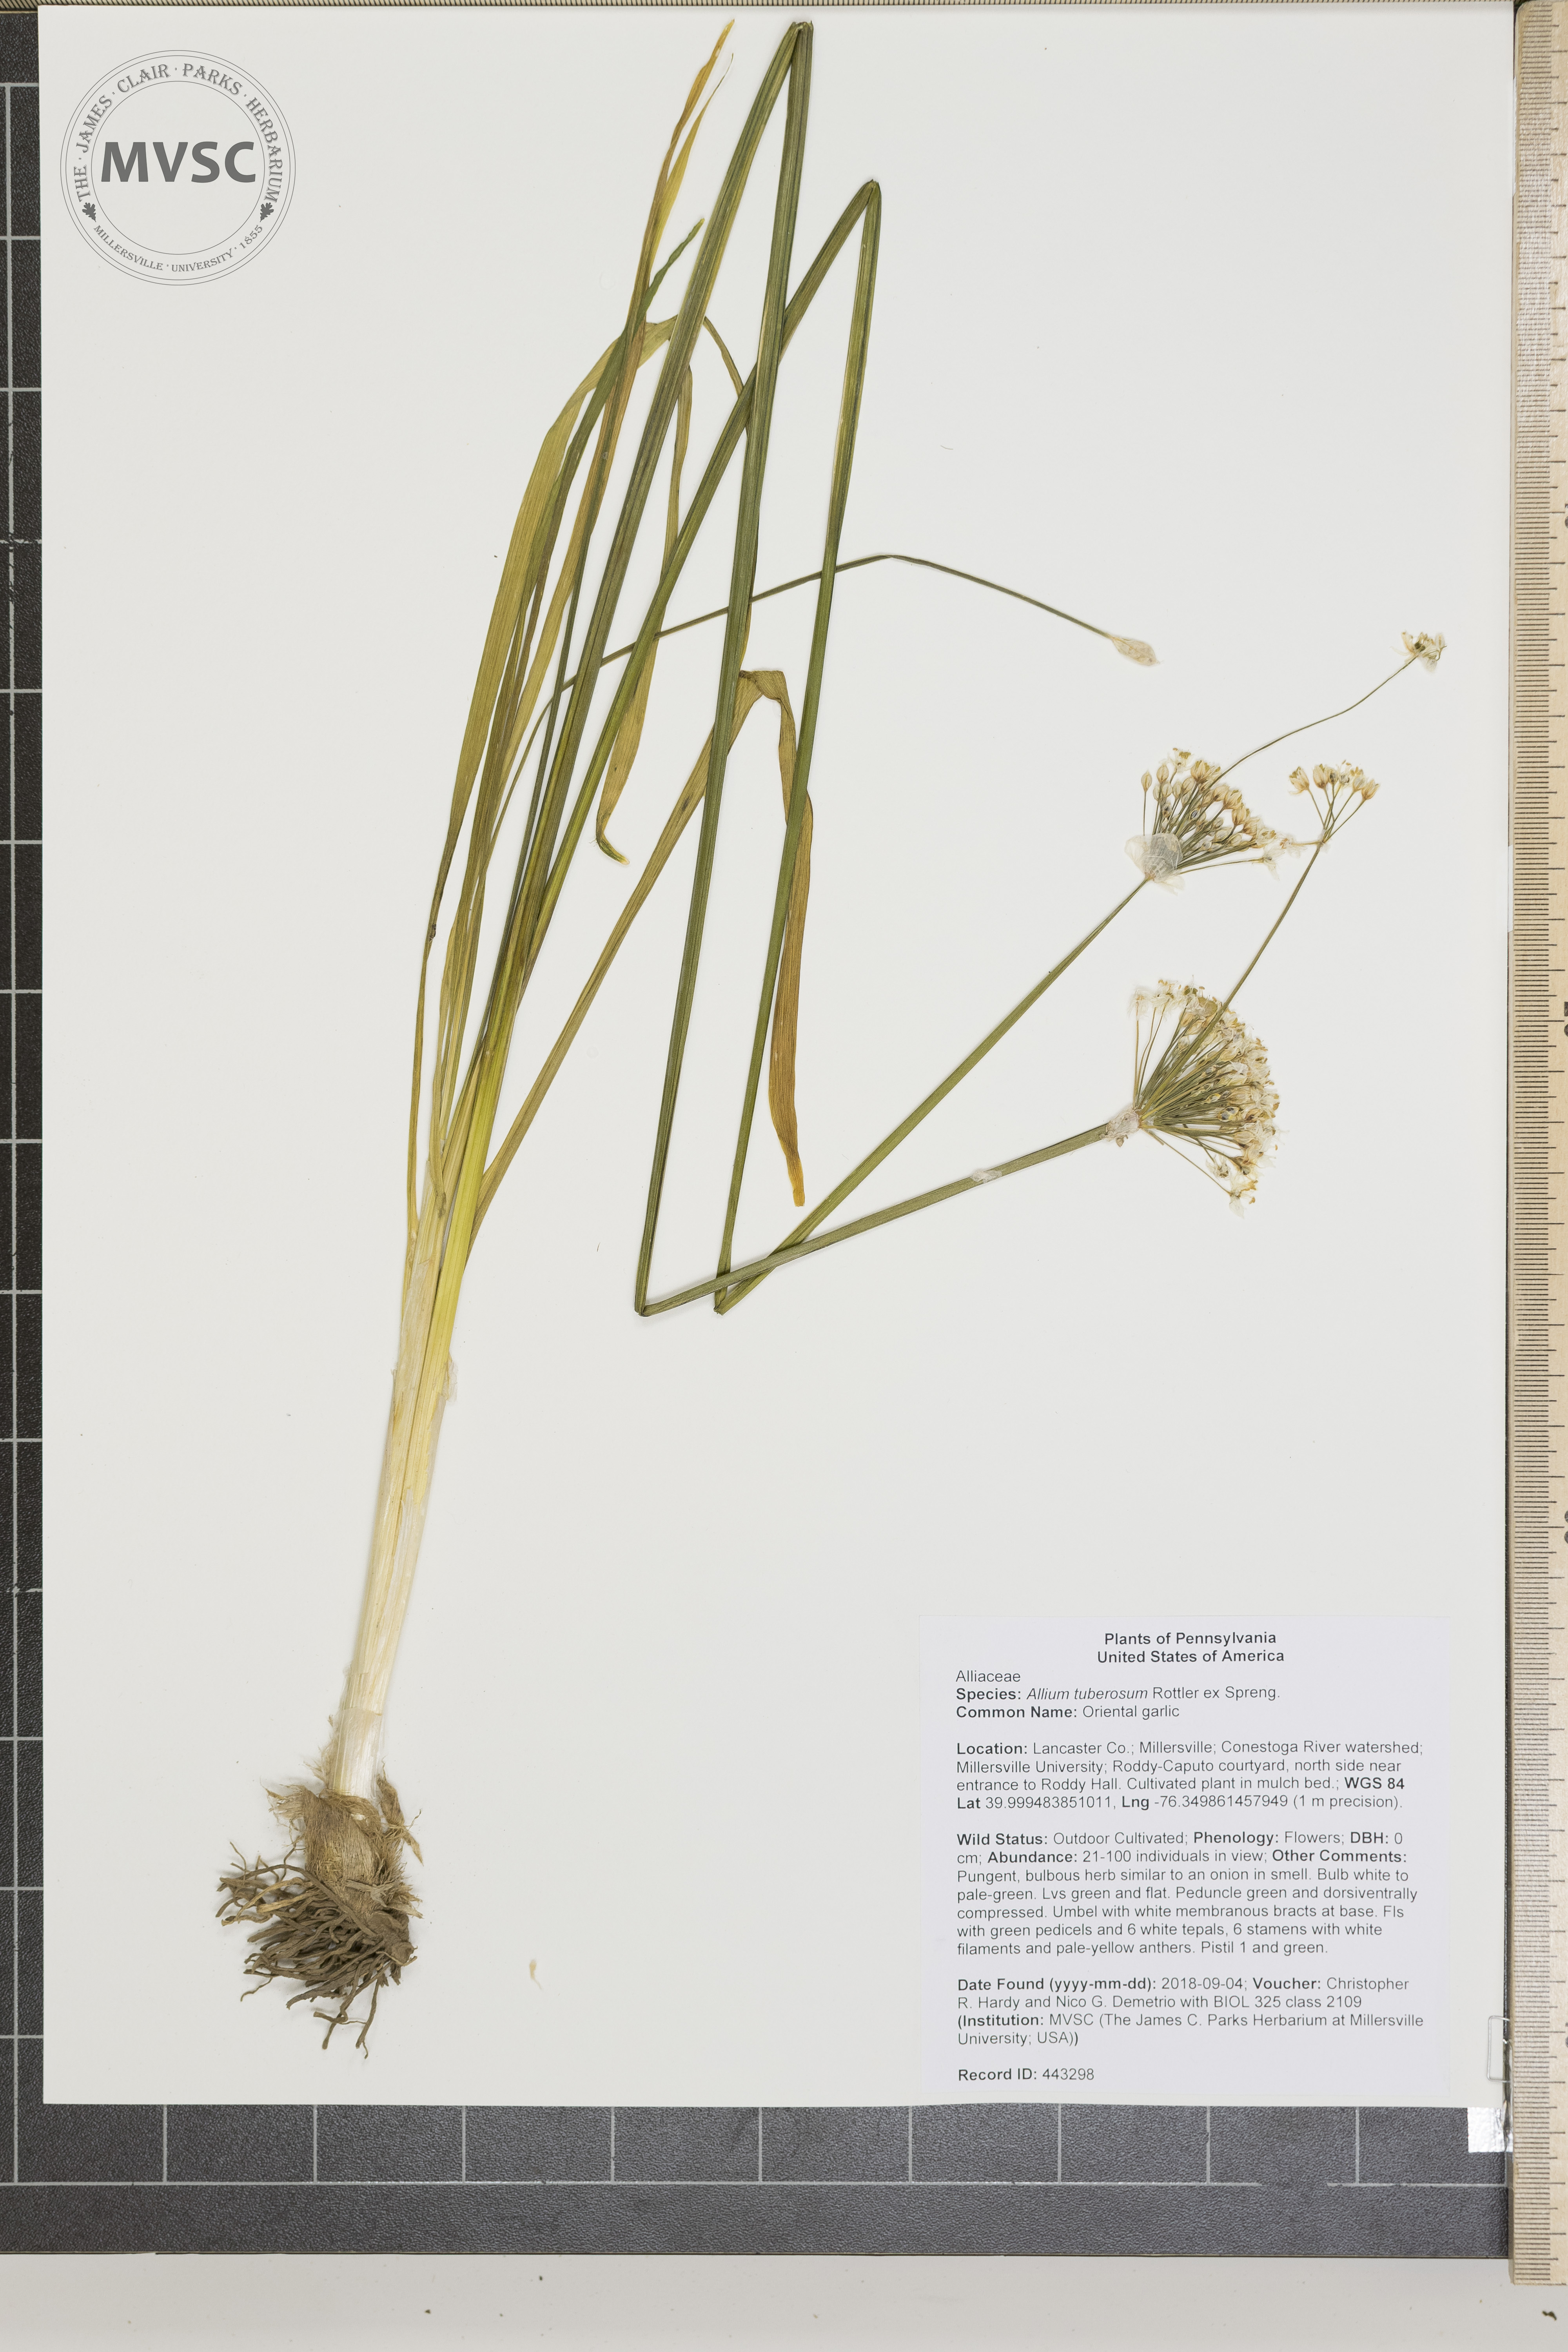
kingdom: Plantae
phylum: Tracheophyta
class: Liliopsida
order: Asparagales
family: Amaryllidaceae
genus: Allium
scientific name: Allium tuberosum
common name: Oriental garlic
